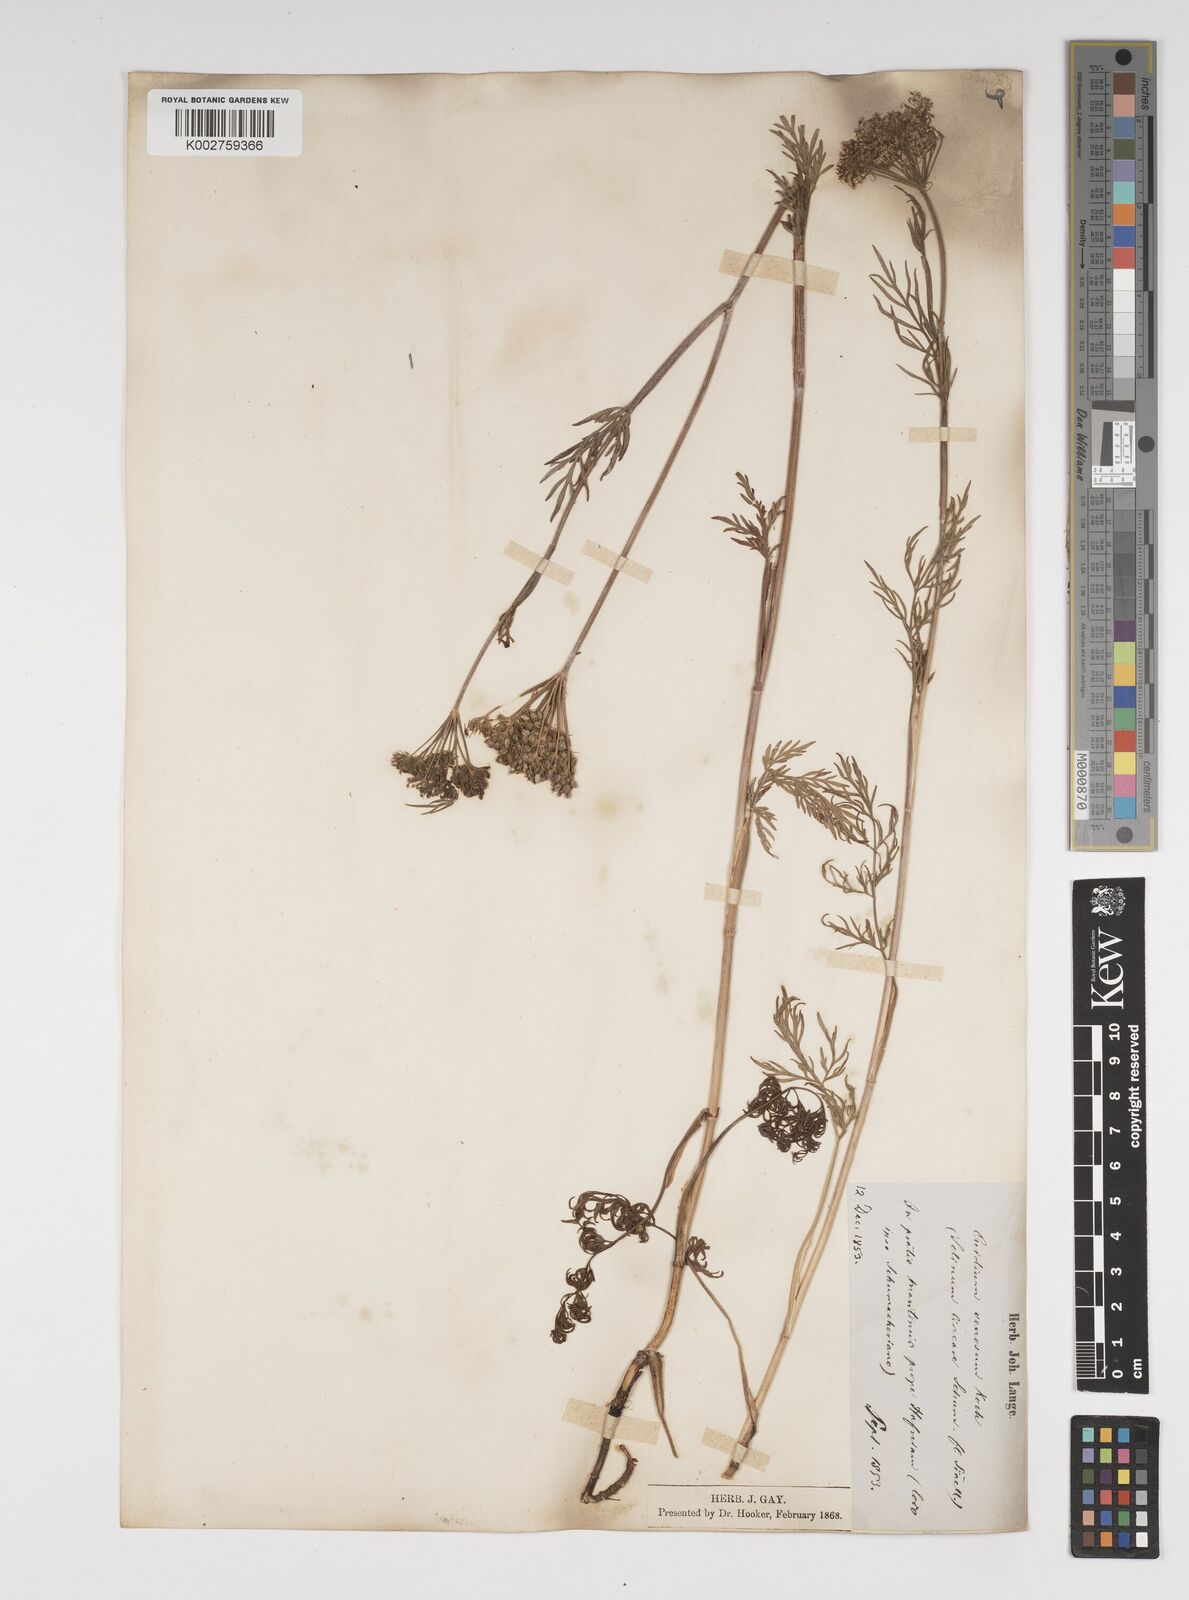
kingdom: Plantae
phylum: Tracheophyta
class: Magnoliopsida
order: Apiales
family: Apiaceae
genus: Kadenia
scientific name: Kadenia dubia
